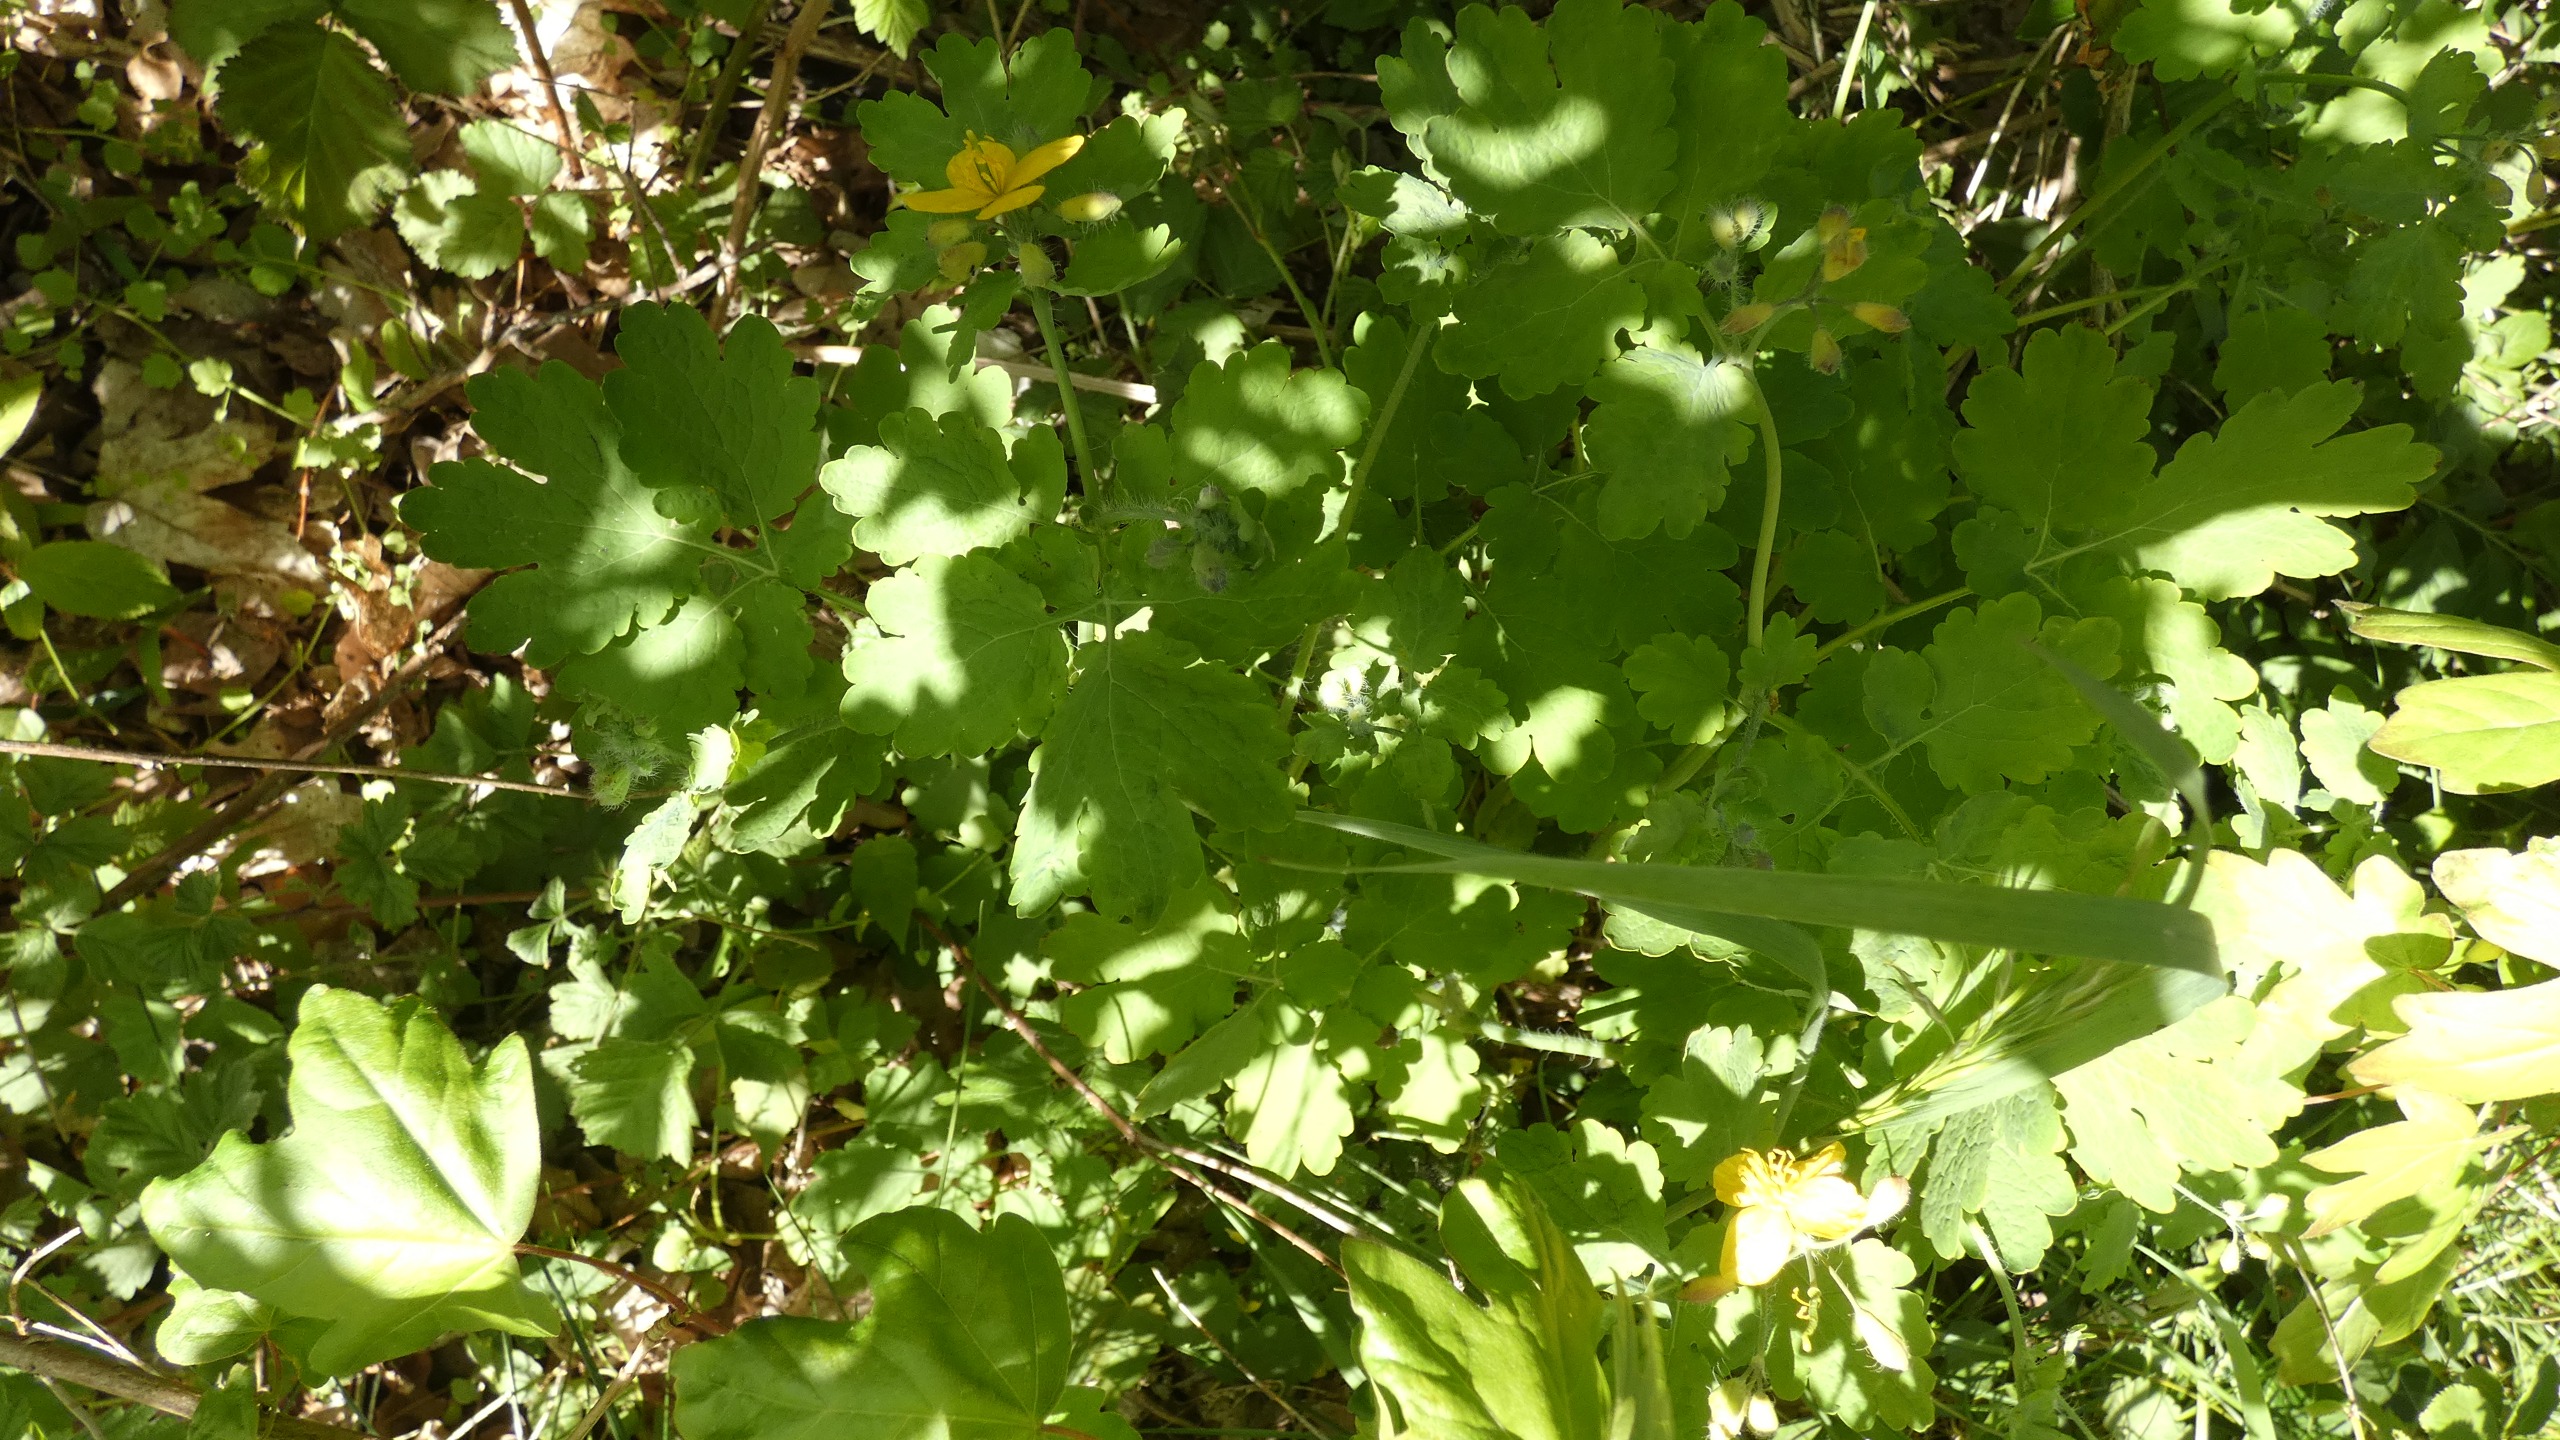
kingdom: Plantae
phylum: Tracheophyta
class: Magnoliopsida
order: Ranunculales
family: Papaveraceae
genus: Chelidonium
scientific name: Chelidonium majus
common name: Svaleurt
